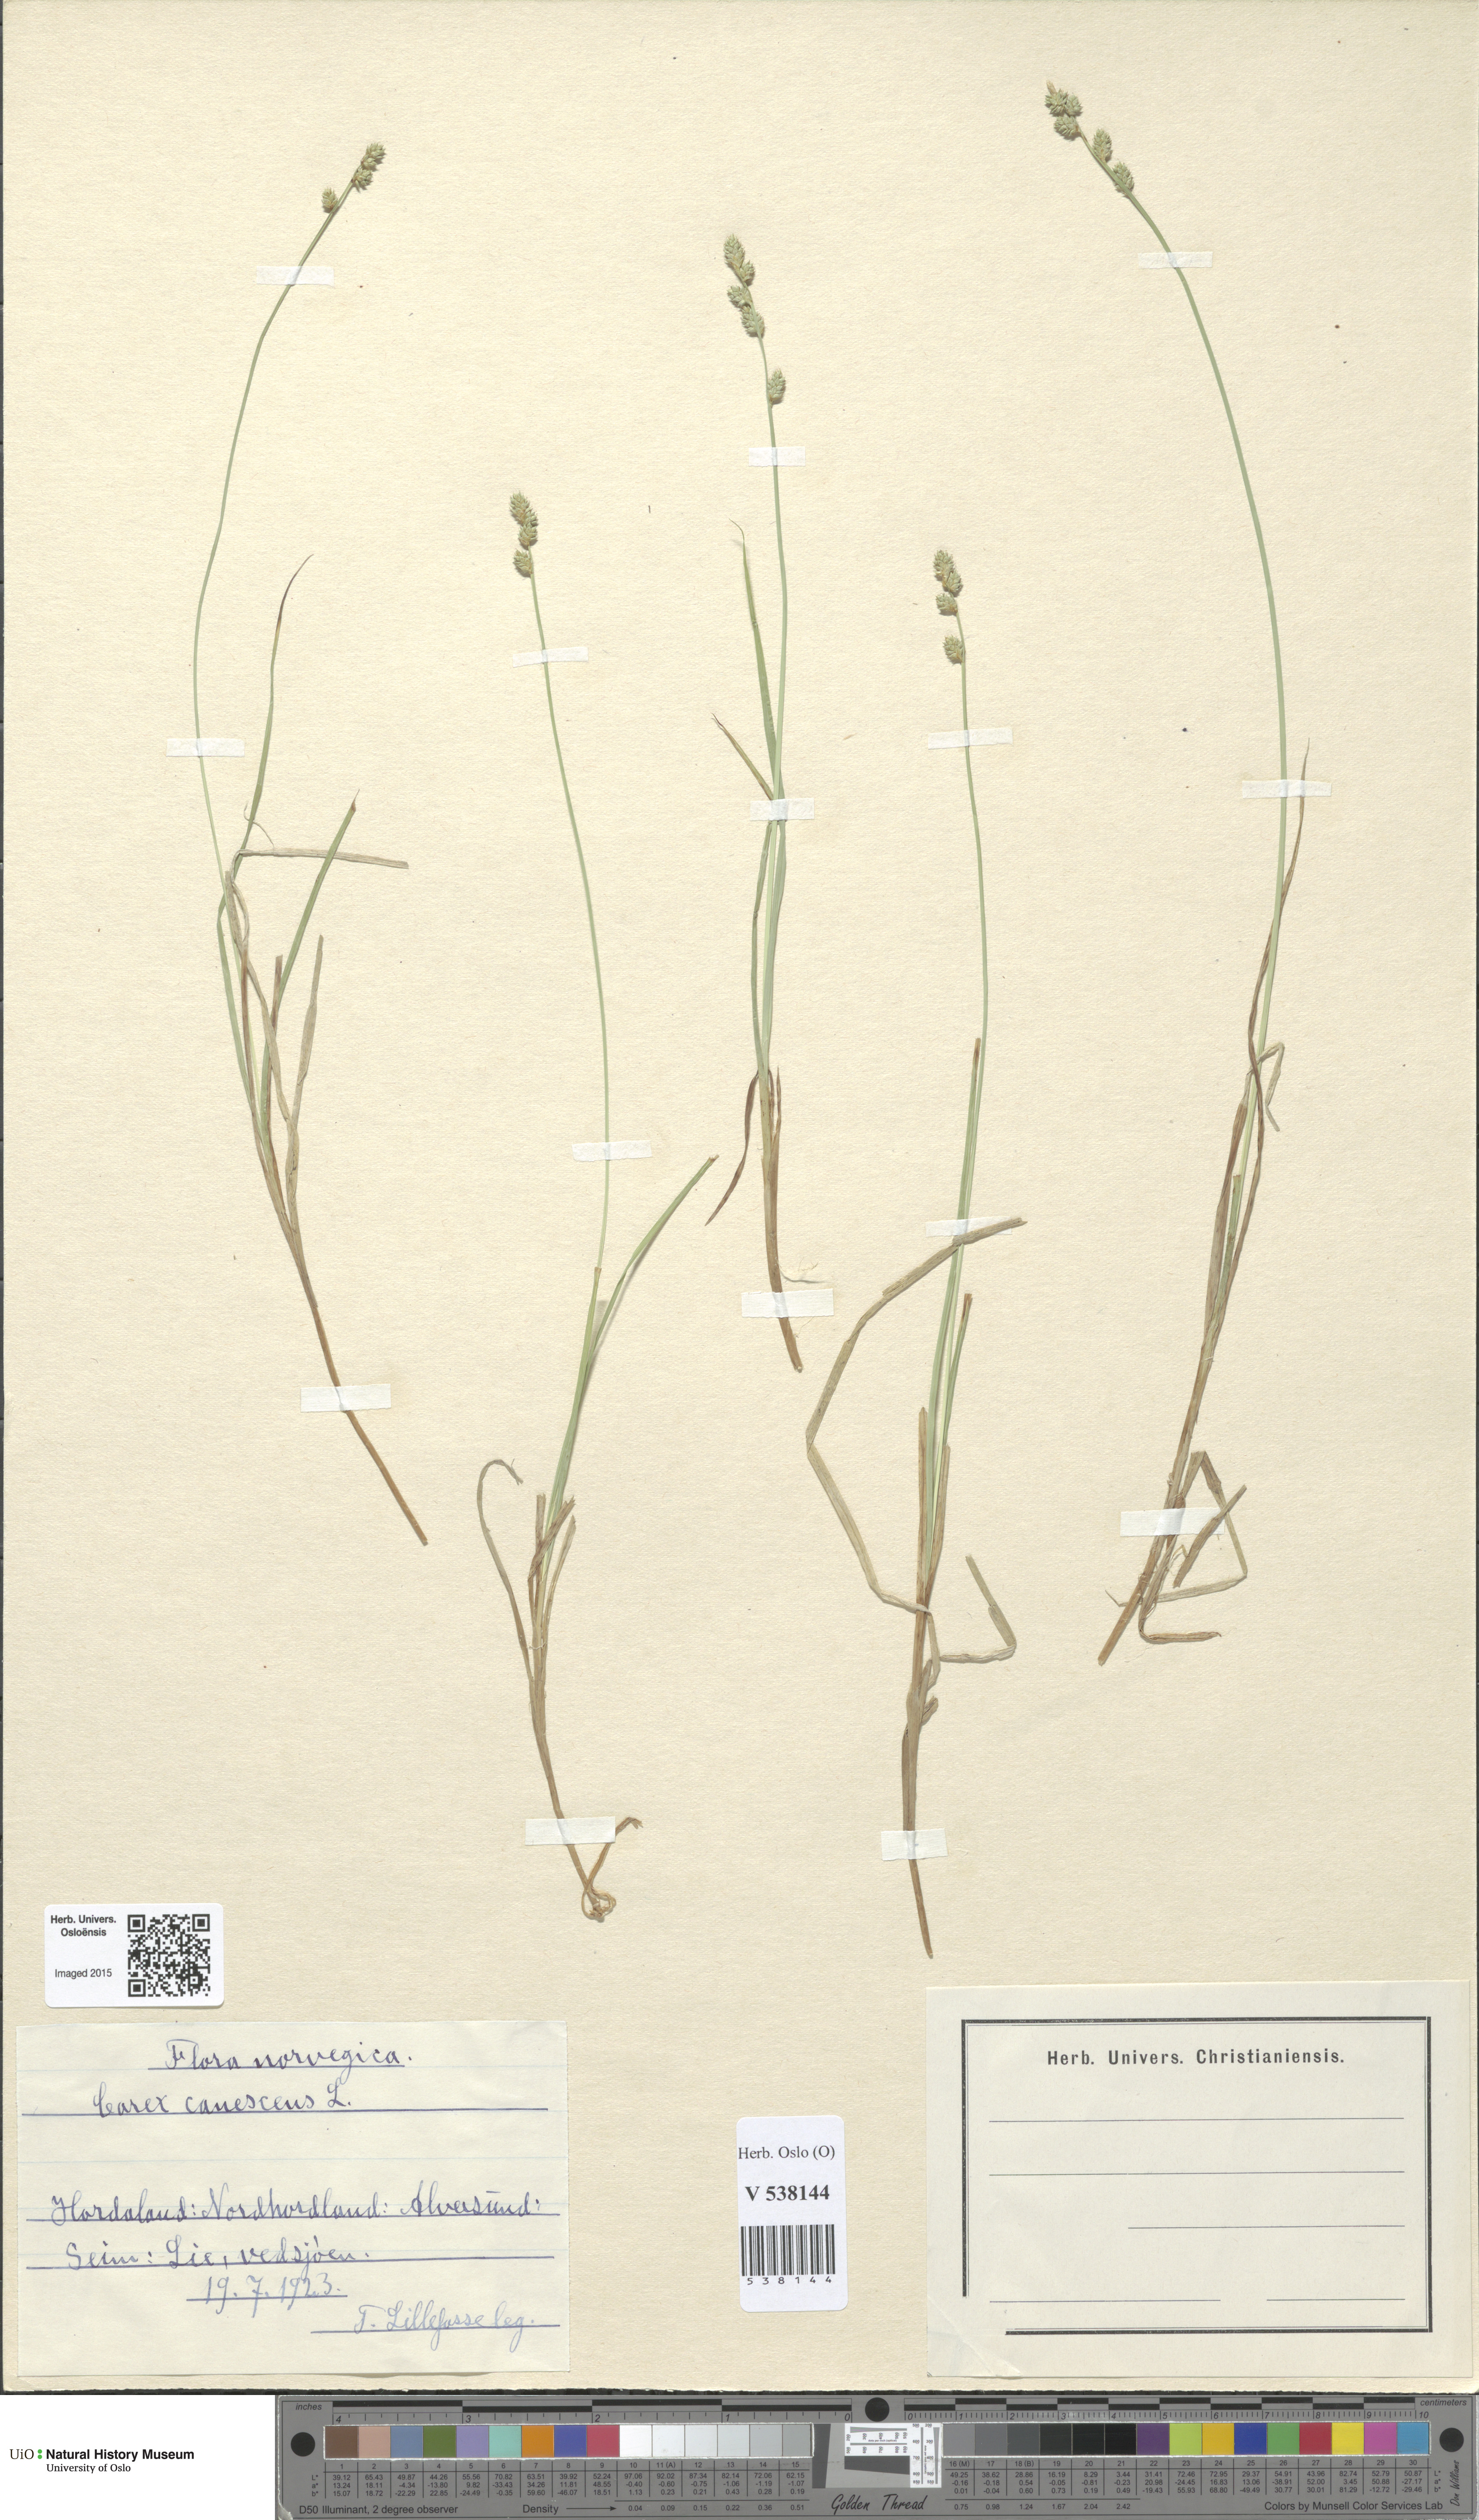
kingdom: Plantae
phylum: Tracheophyta
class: Liliopsida
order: Poales
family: Cyperaceae
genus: Carex
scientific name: Carex canescens
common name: White sedge
